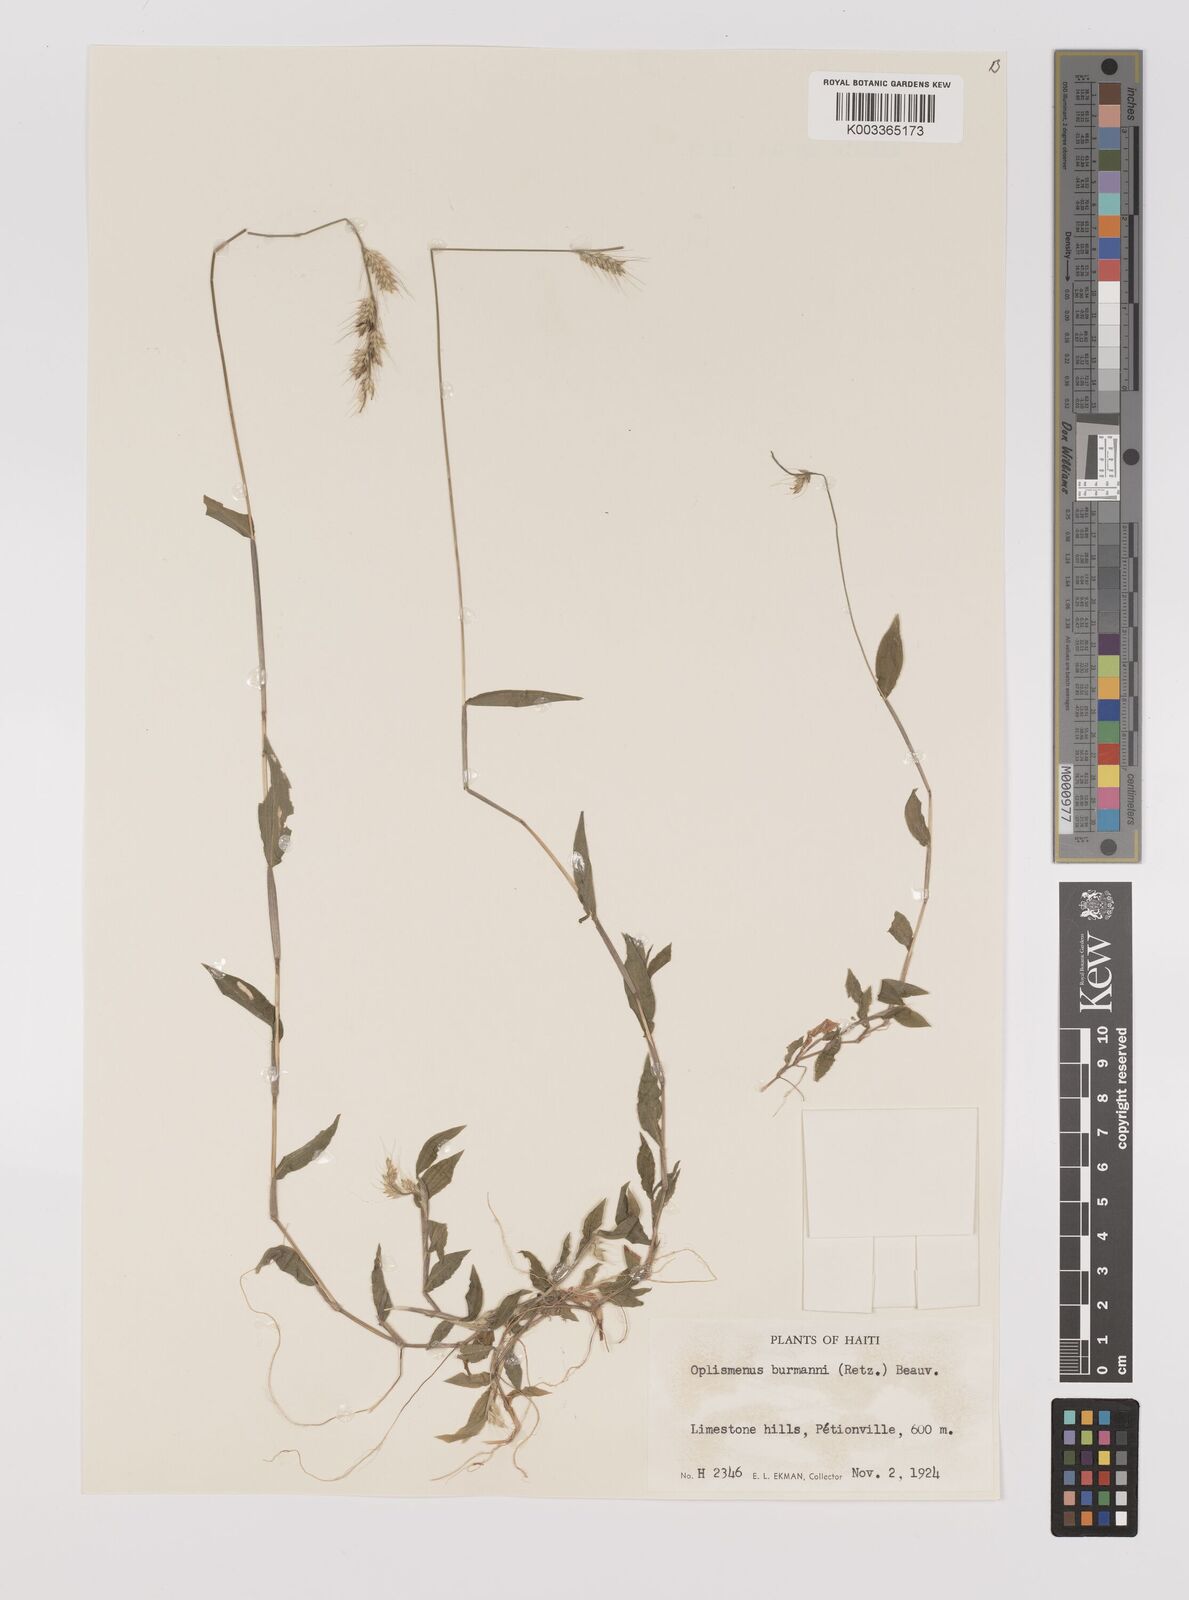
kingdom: Plantae
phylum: Tracheophyta
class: Liliopsida
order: Poales
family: Poaceae
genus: Oplismenus
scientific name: Oplismenus burmanni
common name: Burmann's basketgrass
